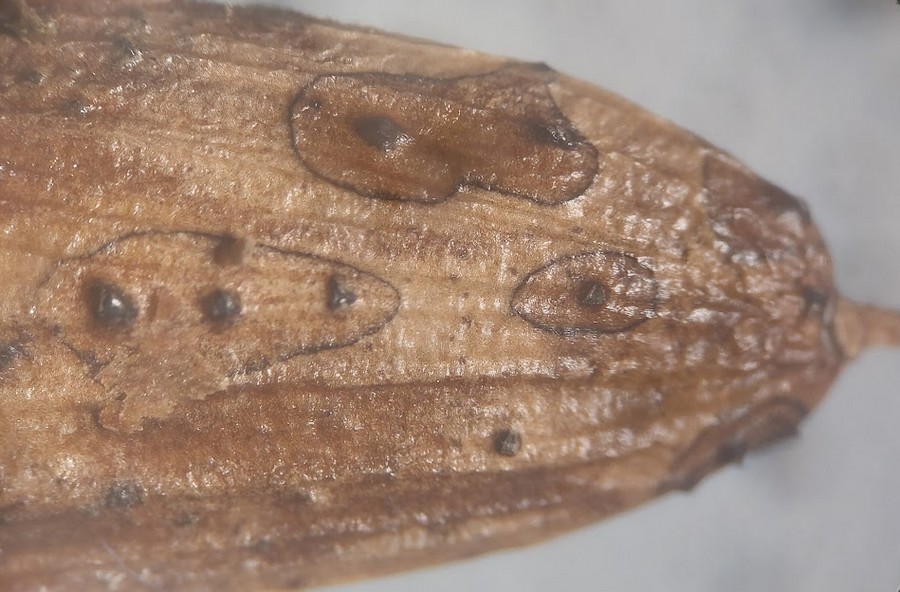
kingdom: Fungi
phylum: Ascomycota
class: Sordariomycetes
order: Diaporthales
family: Diaporthaceae
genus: Diaporthe
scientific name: Diaporthe samaricola
